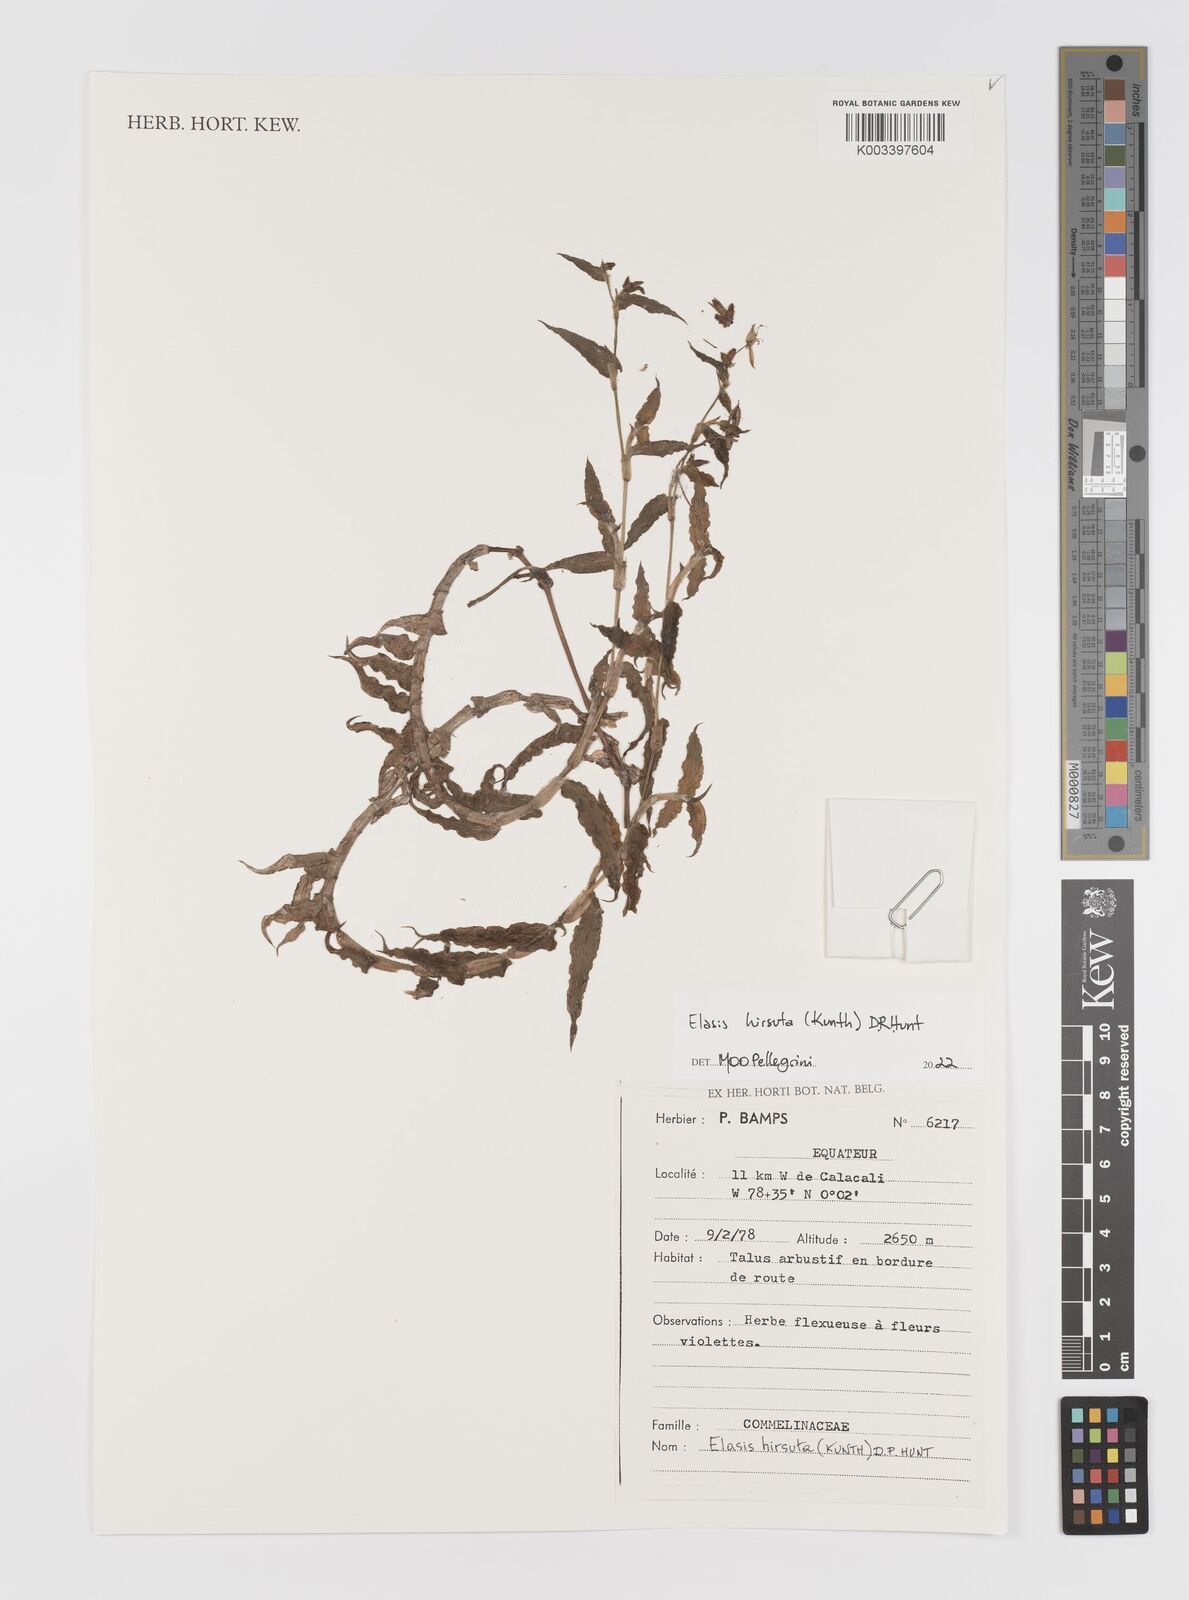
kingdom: Plantae
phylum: Tracheophyta
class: Liliopsida
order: Commelinales
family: Commelinaceae
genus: Elasis
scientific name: Elasis hirsuta
